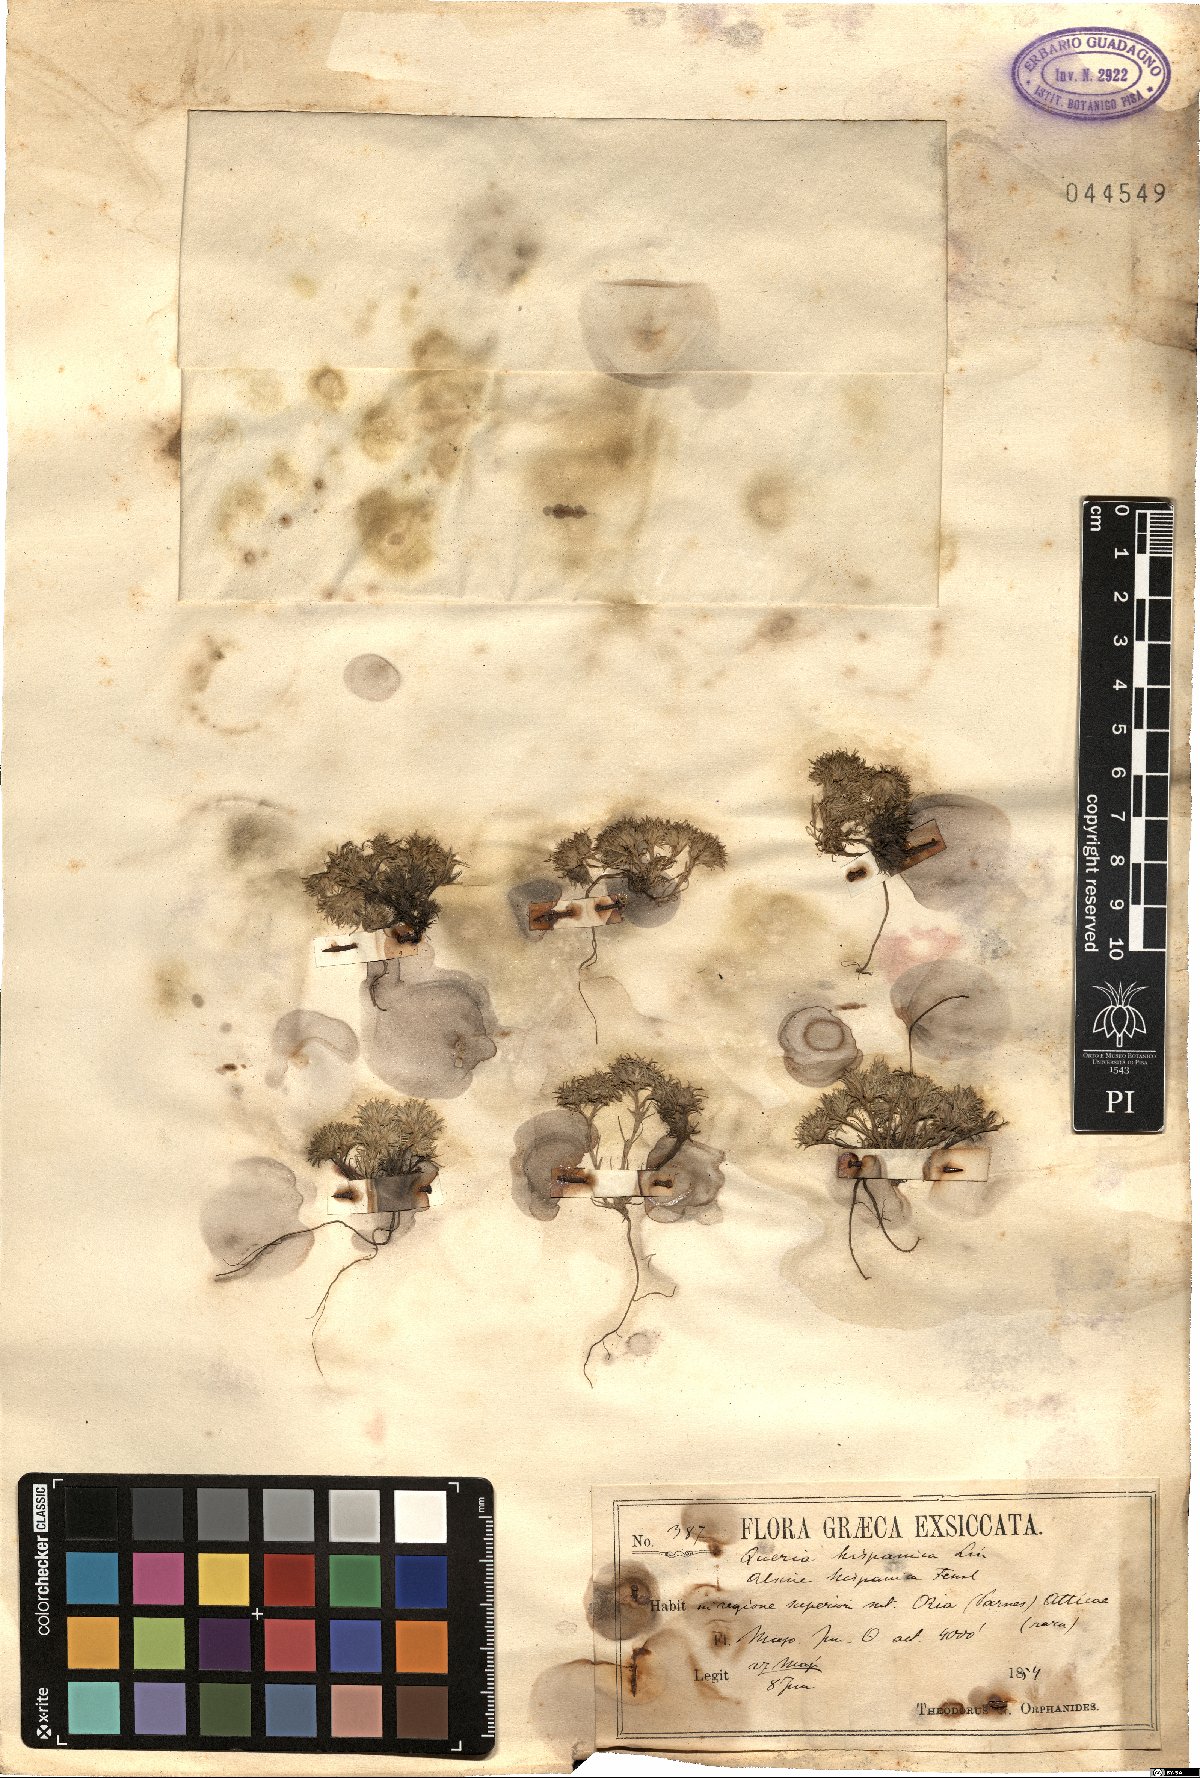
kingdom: Plantae
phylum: Tracheophyta
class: Magnoliopsida
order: Caryophyllales
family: Caryophyllaceae
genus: Minuartia
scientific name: Minuartia hamata
